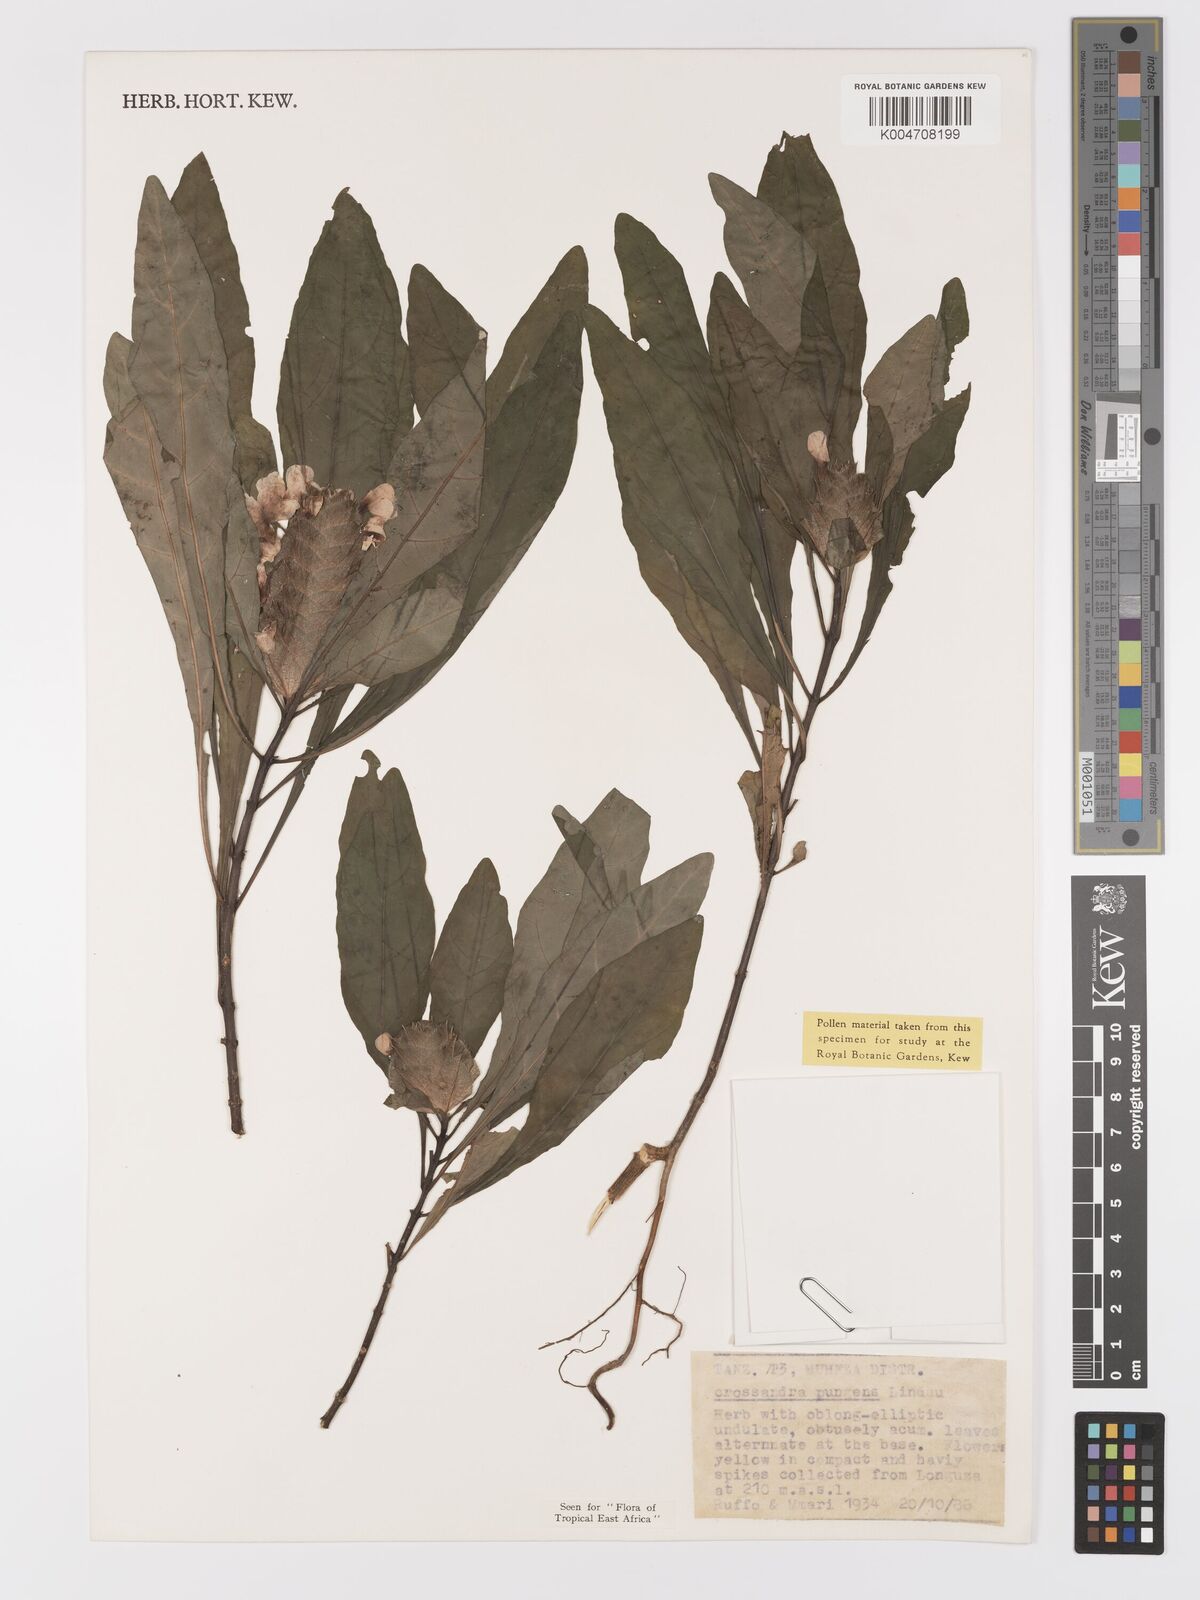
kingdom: Plantae
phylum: Tracheophyta
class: Magnoliopsida
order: Lamiales
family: Acanthaceae
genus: Crossandra
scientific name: Crossandra pungens
